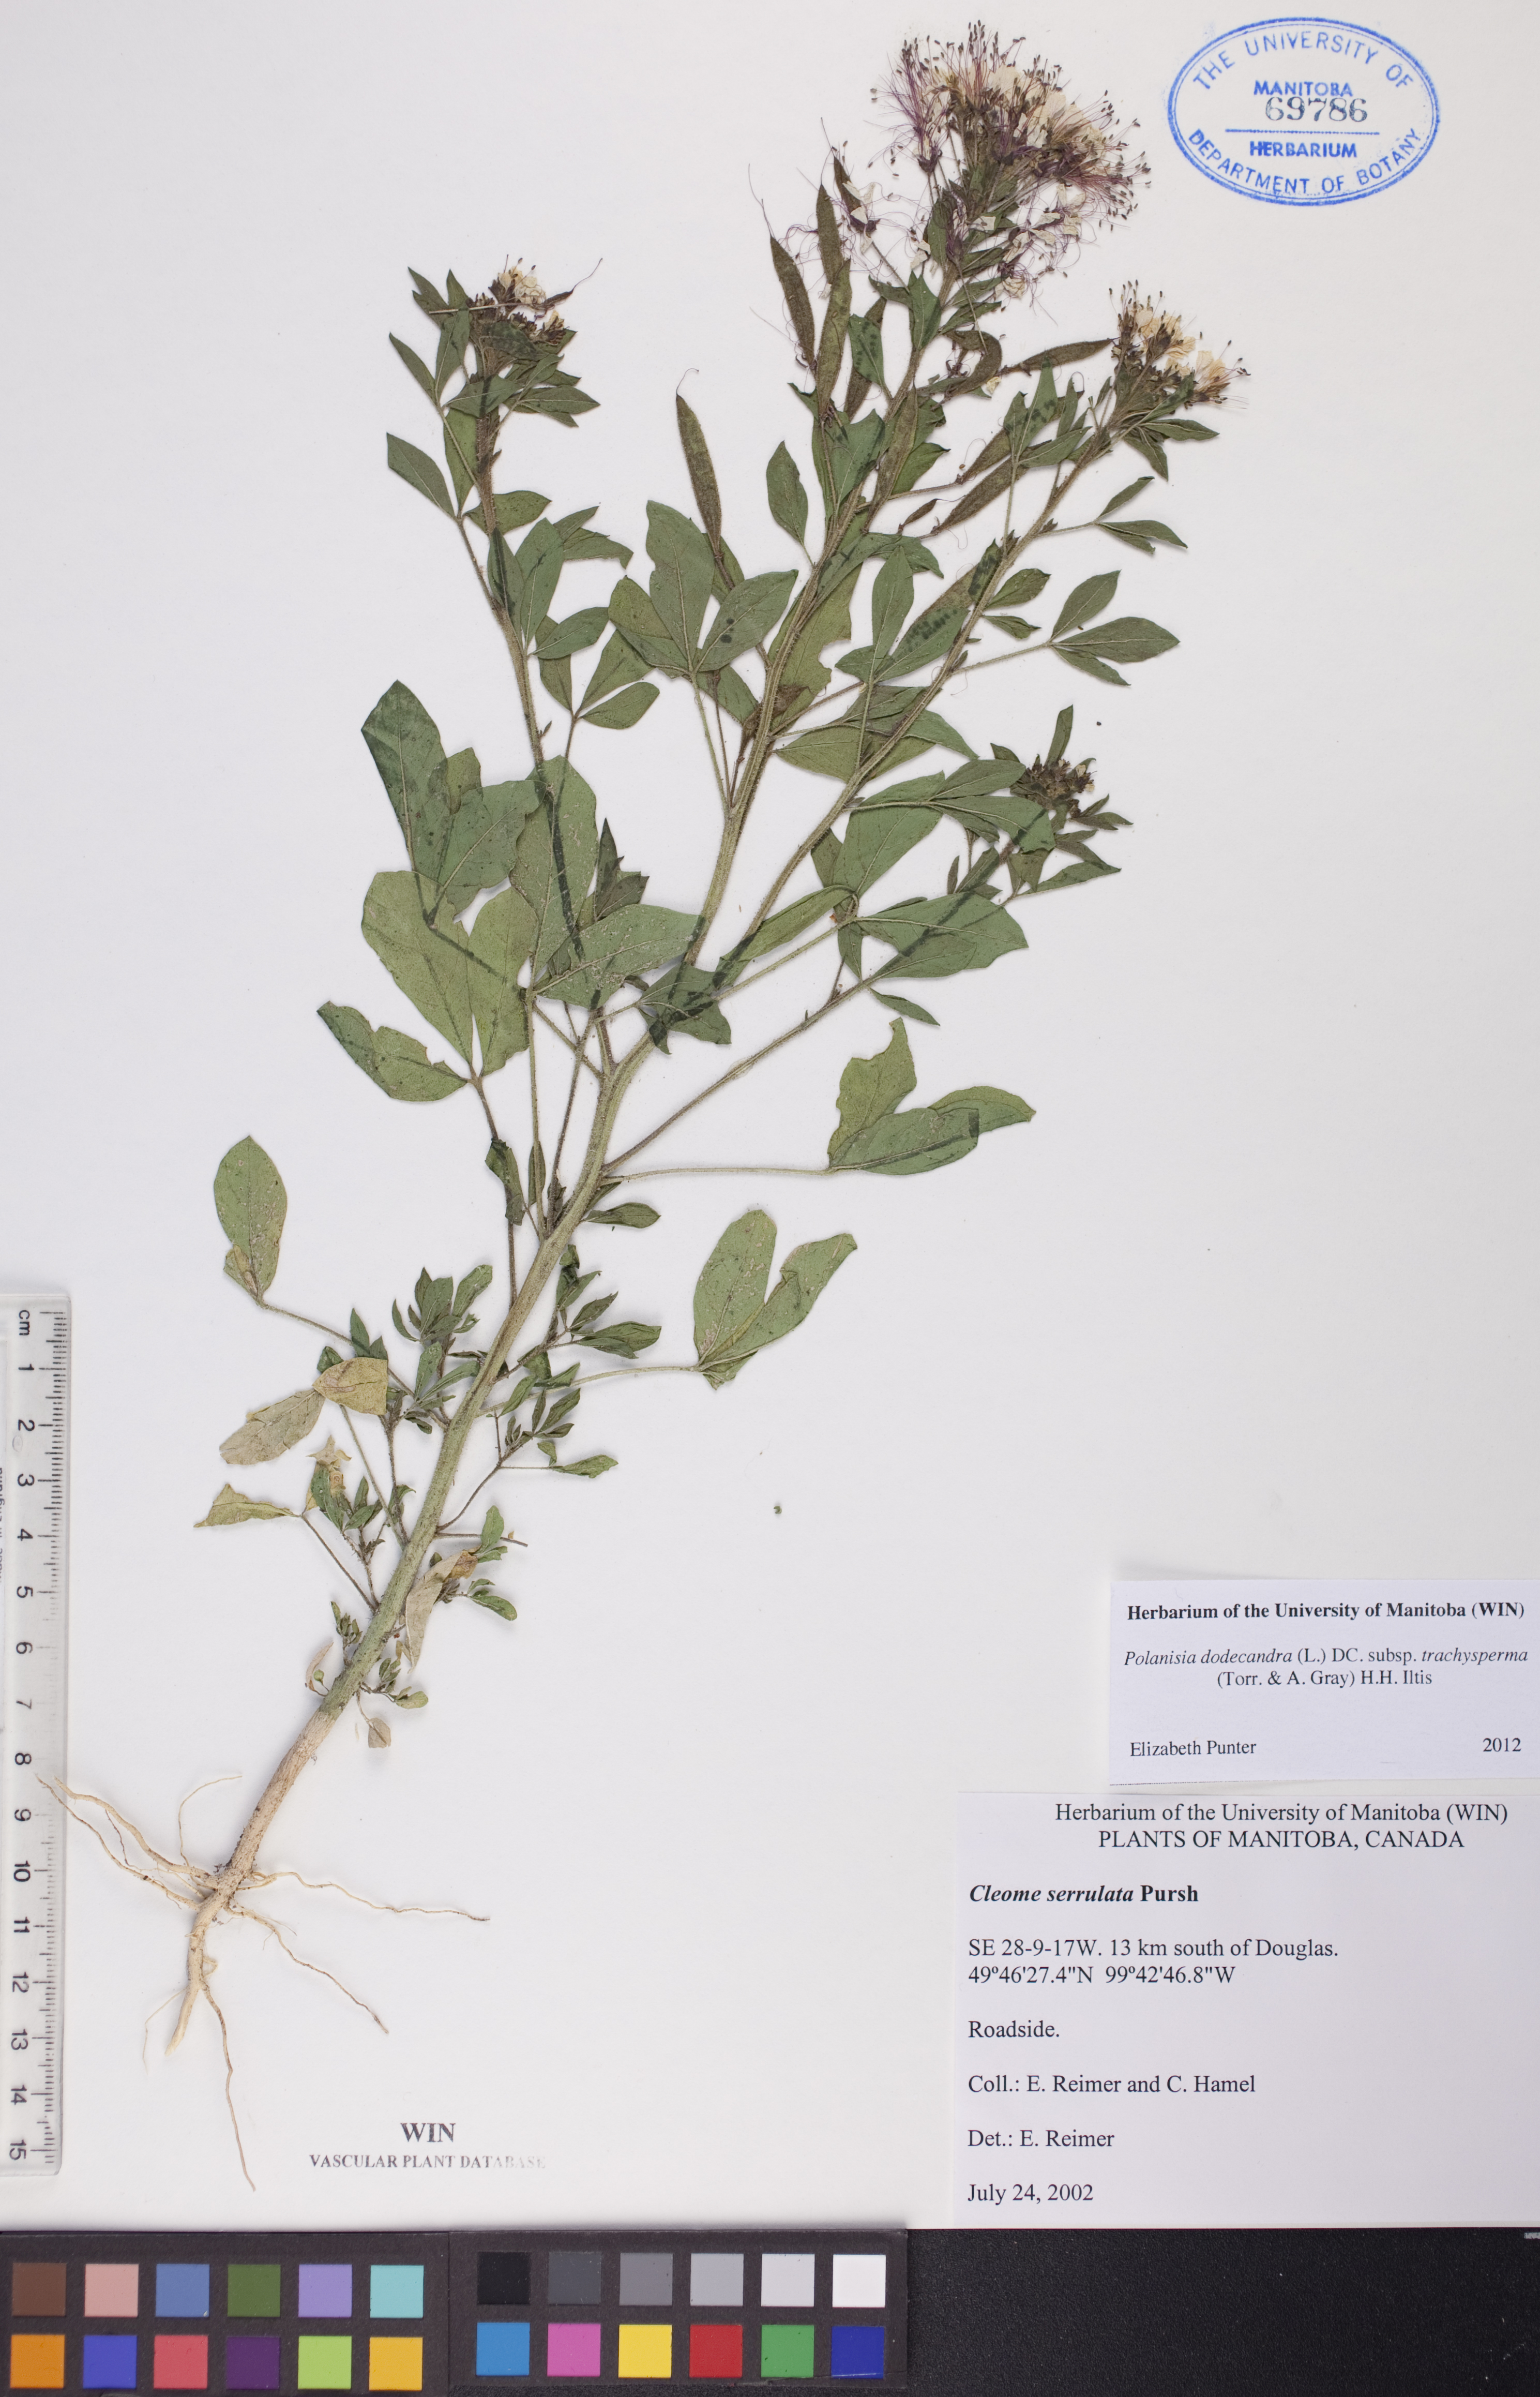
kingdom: Plantae
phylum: Tracheophyta
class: Magnoliopsida
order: Brassicales
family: Cleomaceae
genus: Polanisia
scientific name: Polanisia trachysperma
